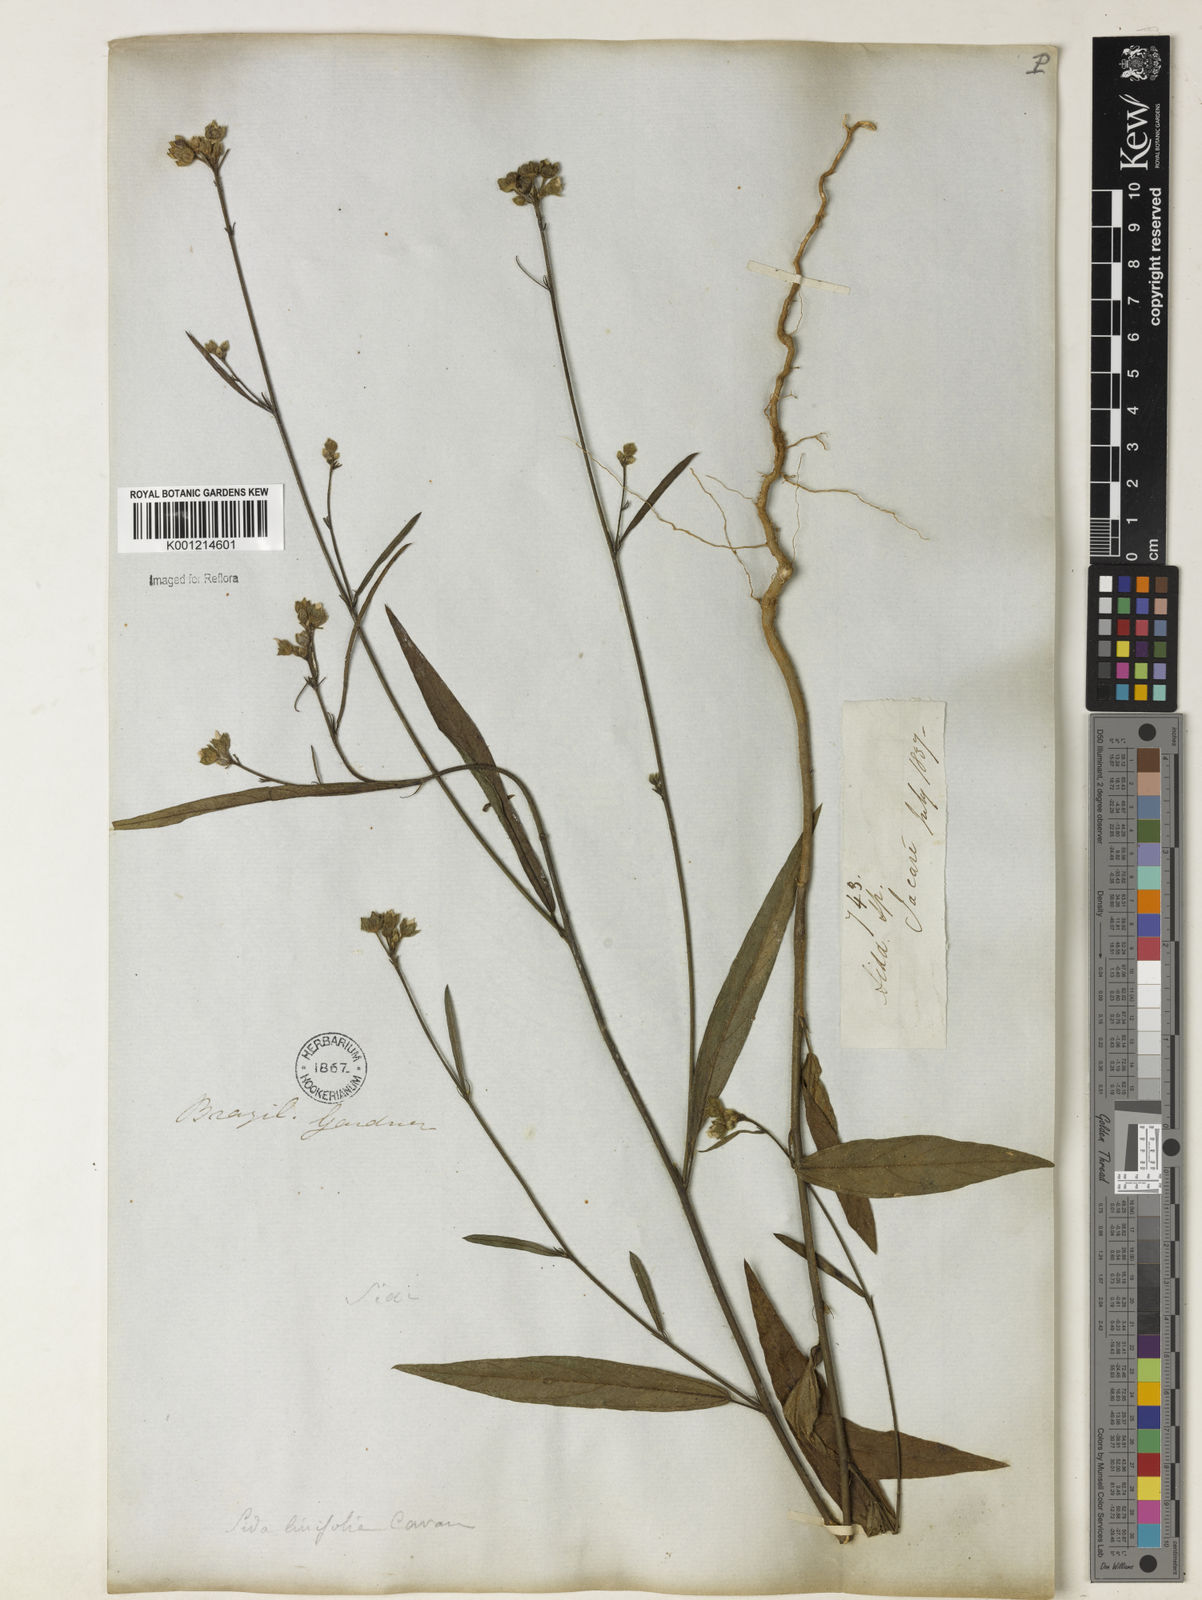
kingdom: Plantae
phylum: Tracheophyta
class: Magnoliopsida
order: Malvales
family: Malvaceae
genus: Sida
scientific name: Sida linifolia
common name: Flaxleaf fanpetals
